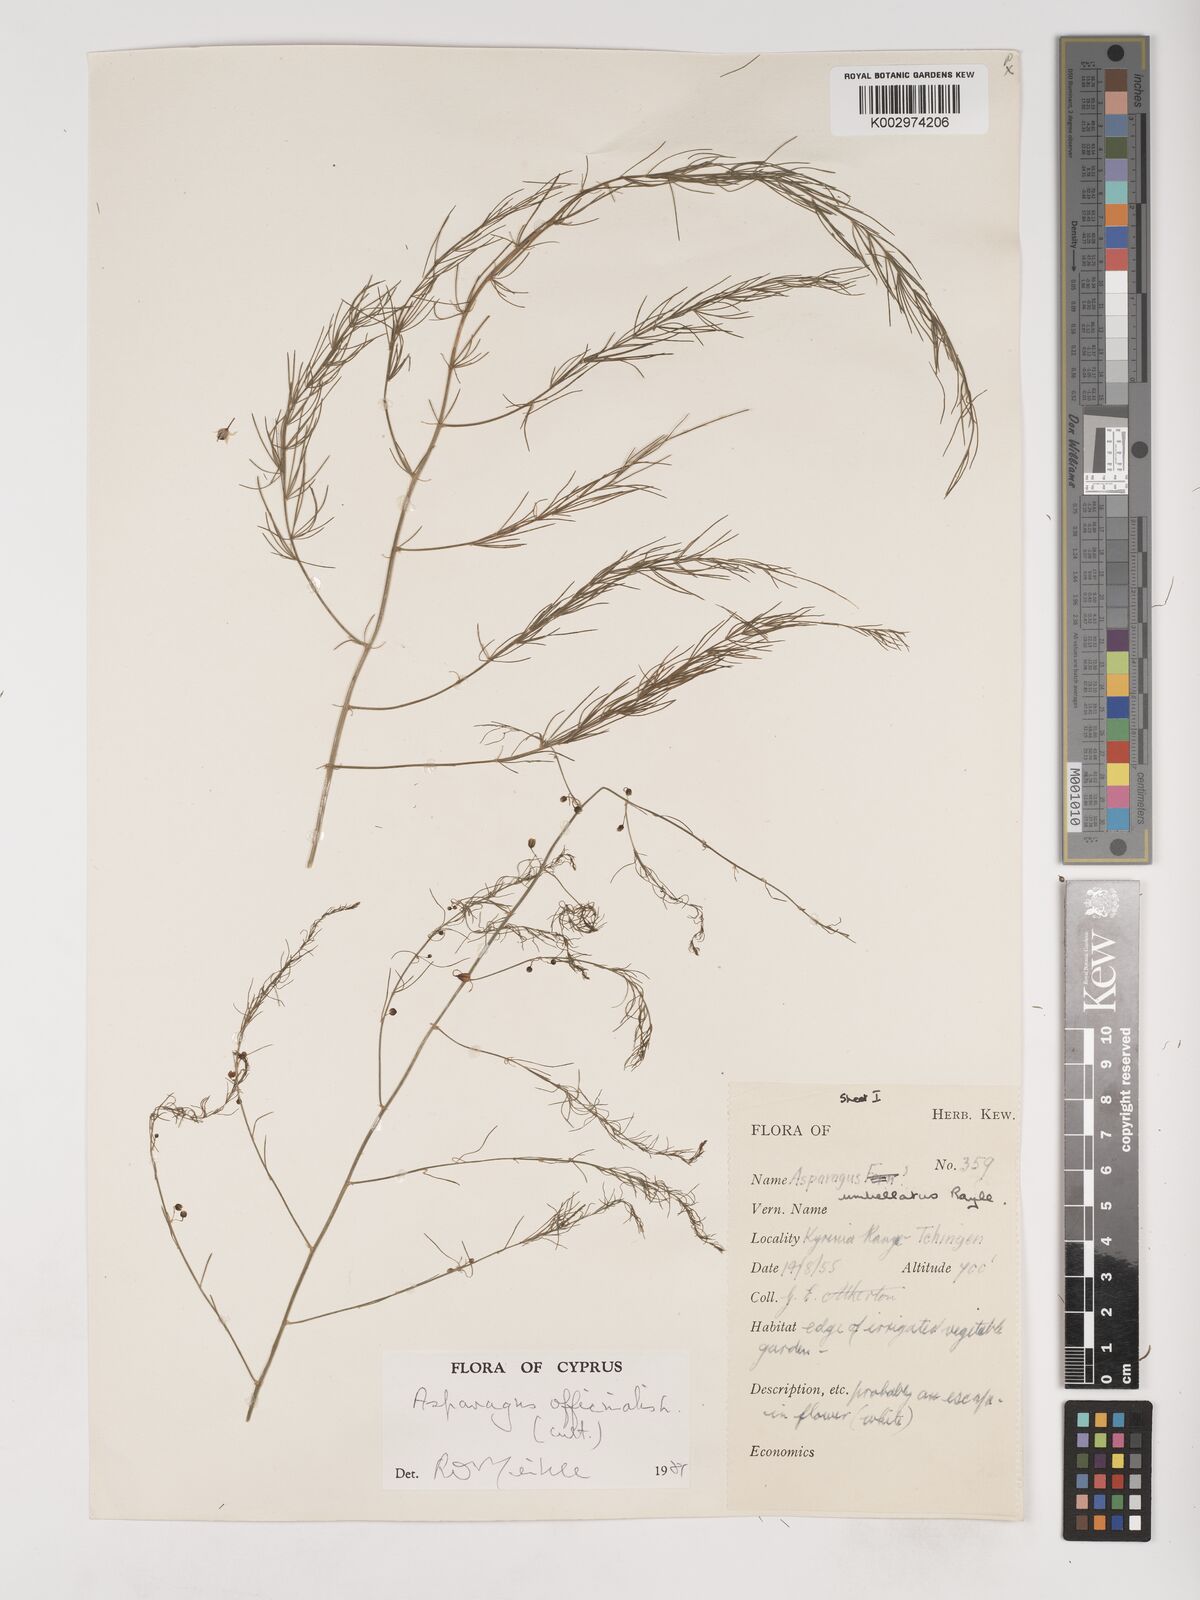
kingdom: Plantae
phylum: Tracheophyta
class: Liliopsida
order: Asparagales
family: Asparagaceae
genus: Asparagus
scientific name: Asparagus
